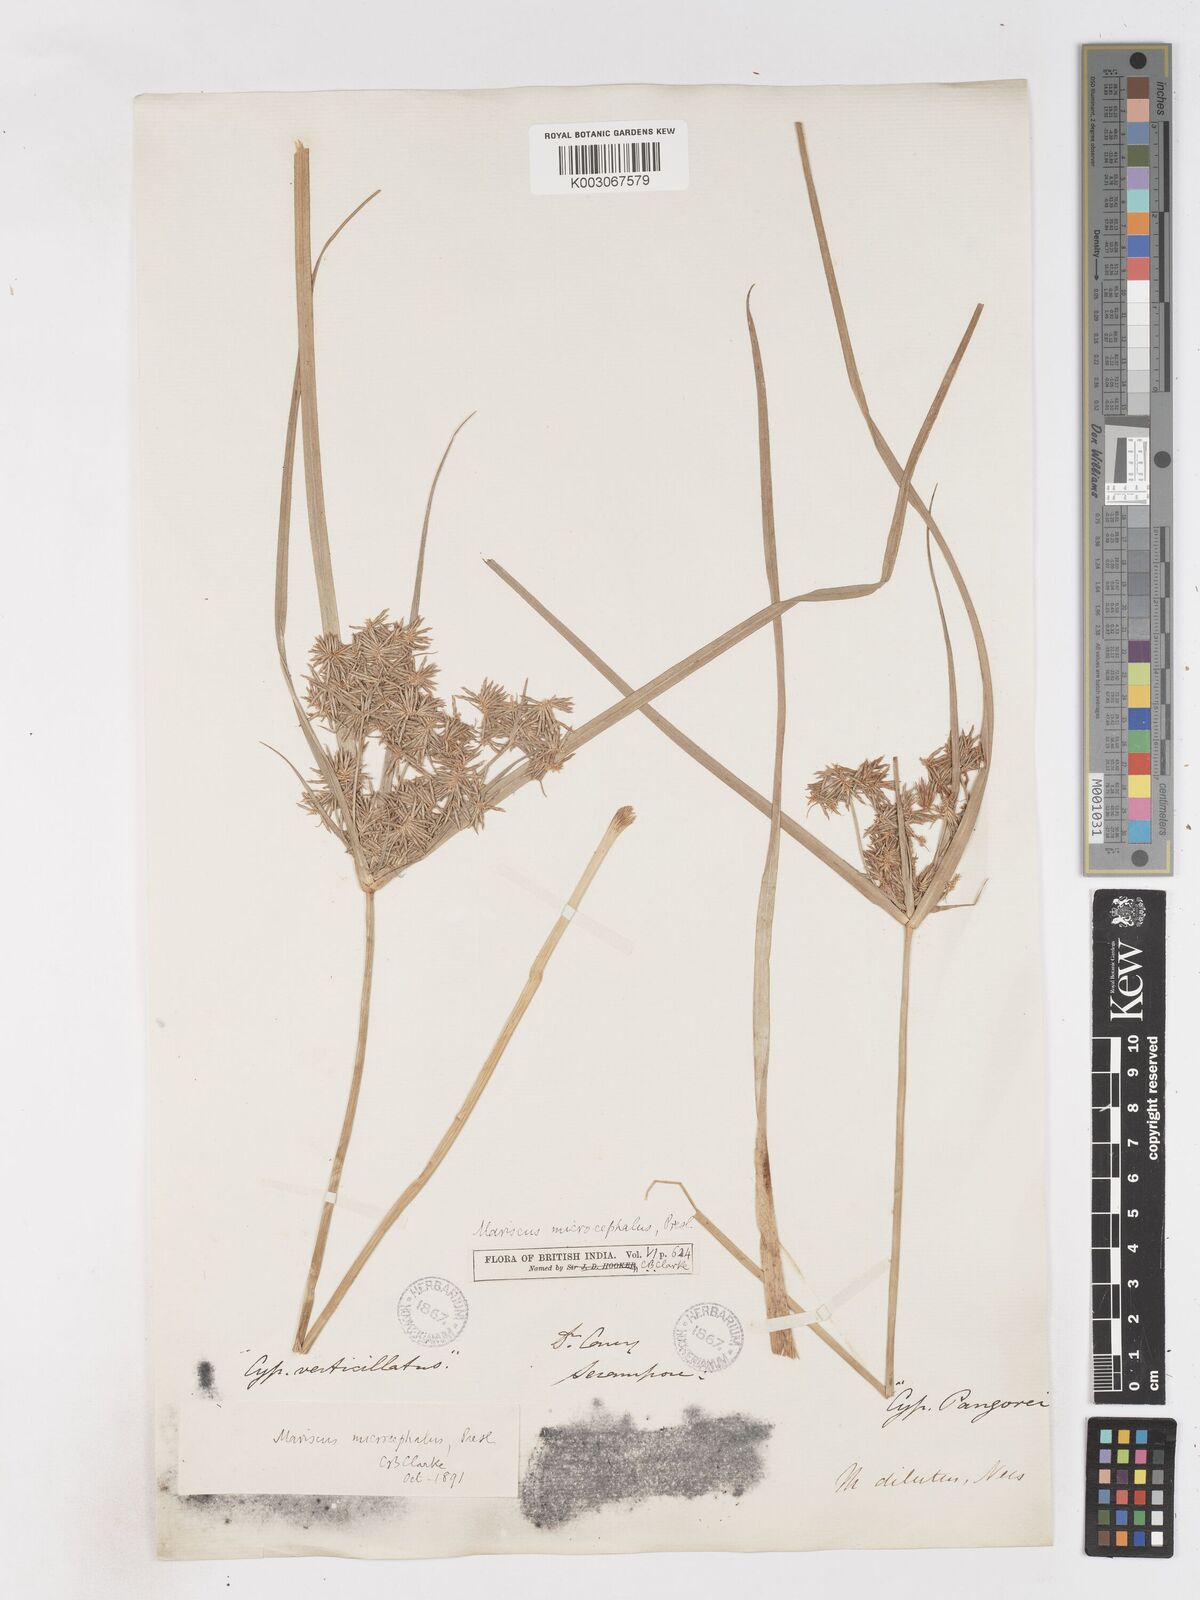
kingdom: Plantae
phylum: Tracheophyta
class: Liliopsida
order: Poales
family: Cyperaceae
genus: Cyperus
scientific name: Cyperus compactus
